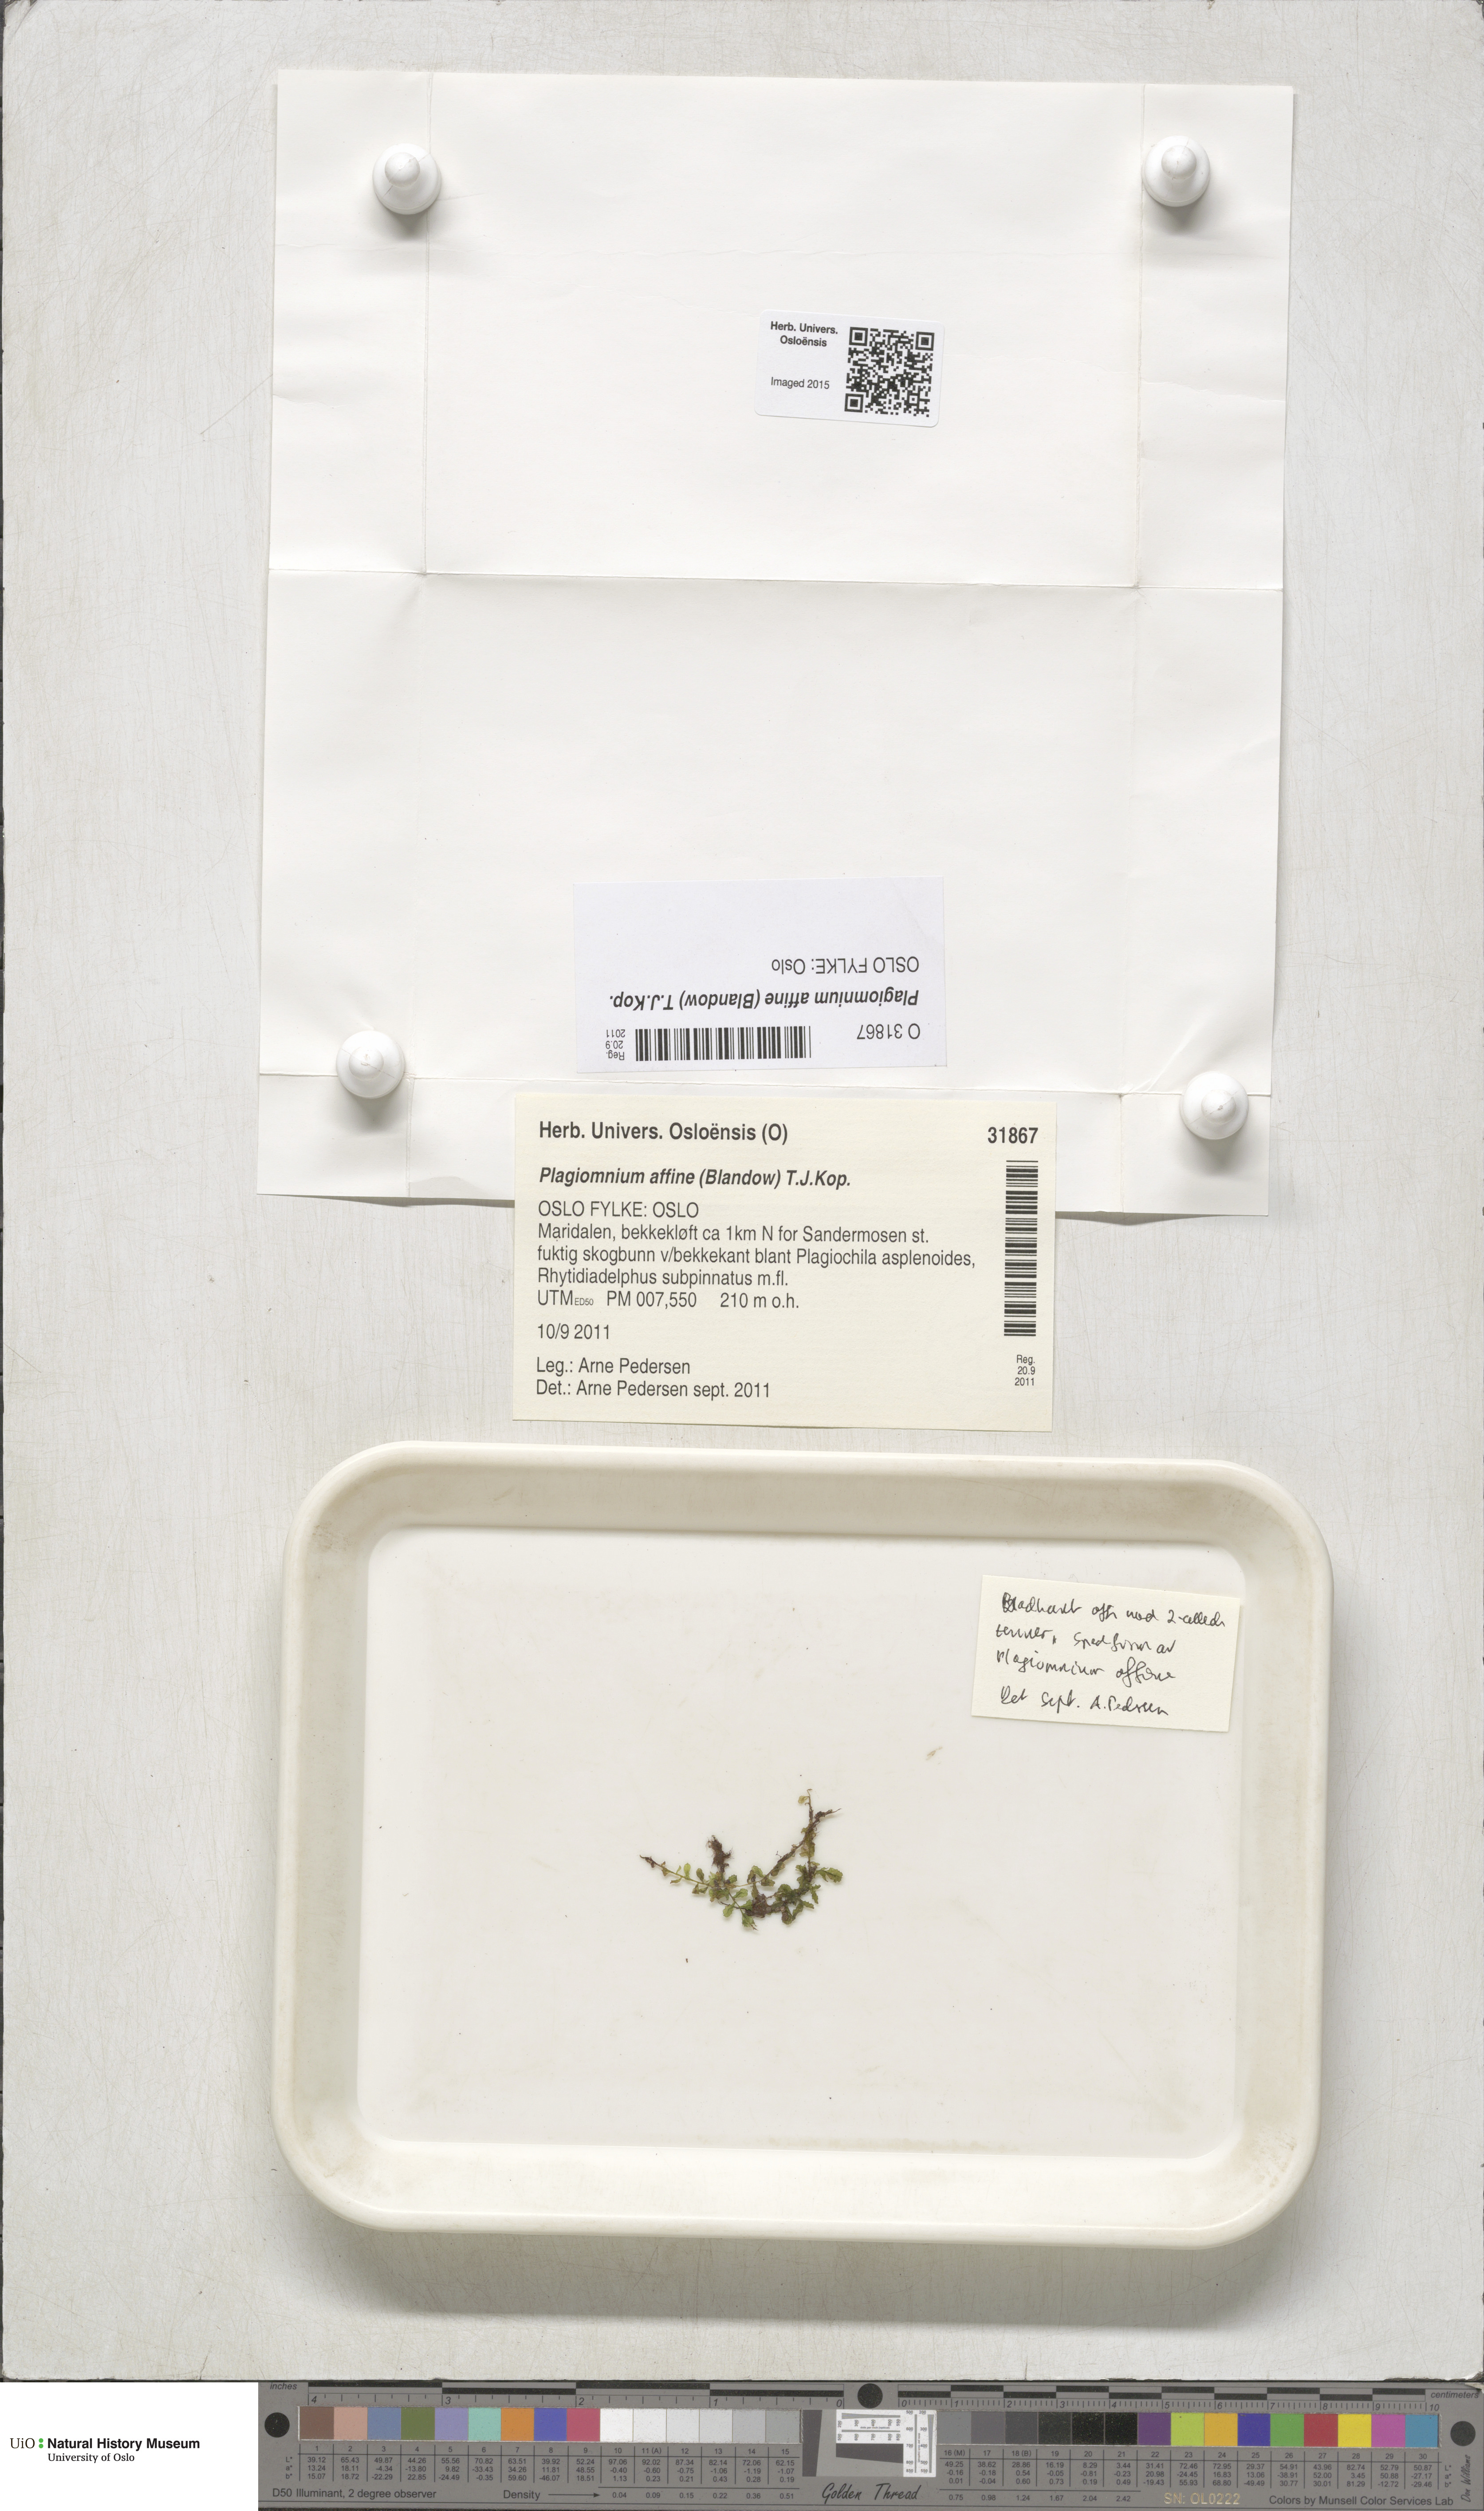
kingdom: Plantae
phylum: Bryophyta
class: Bryopsida
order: Bryales
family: Mniaceae
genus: Plagiomnium
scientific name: Plagiomnium affine
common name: Many-fruited thyme-moss
